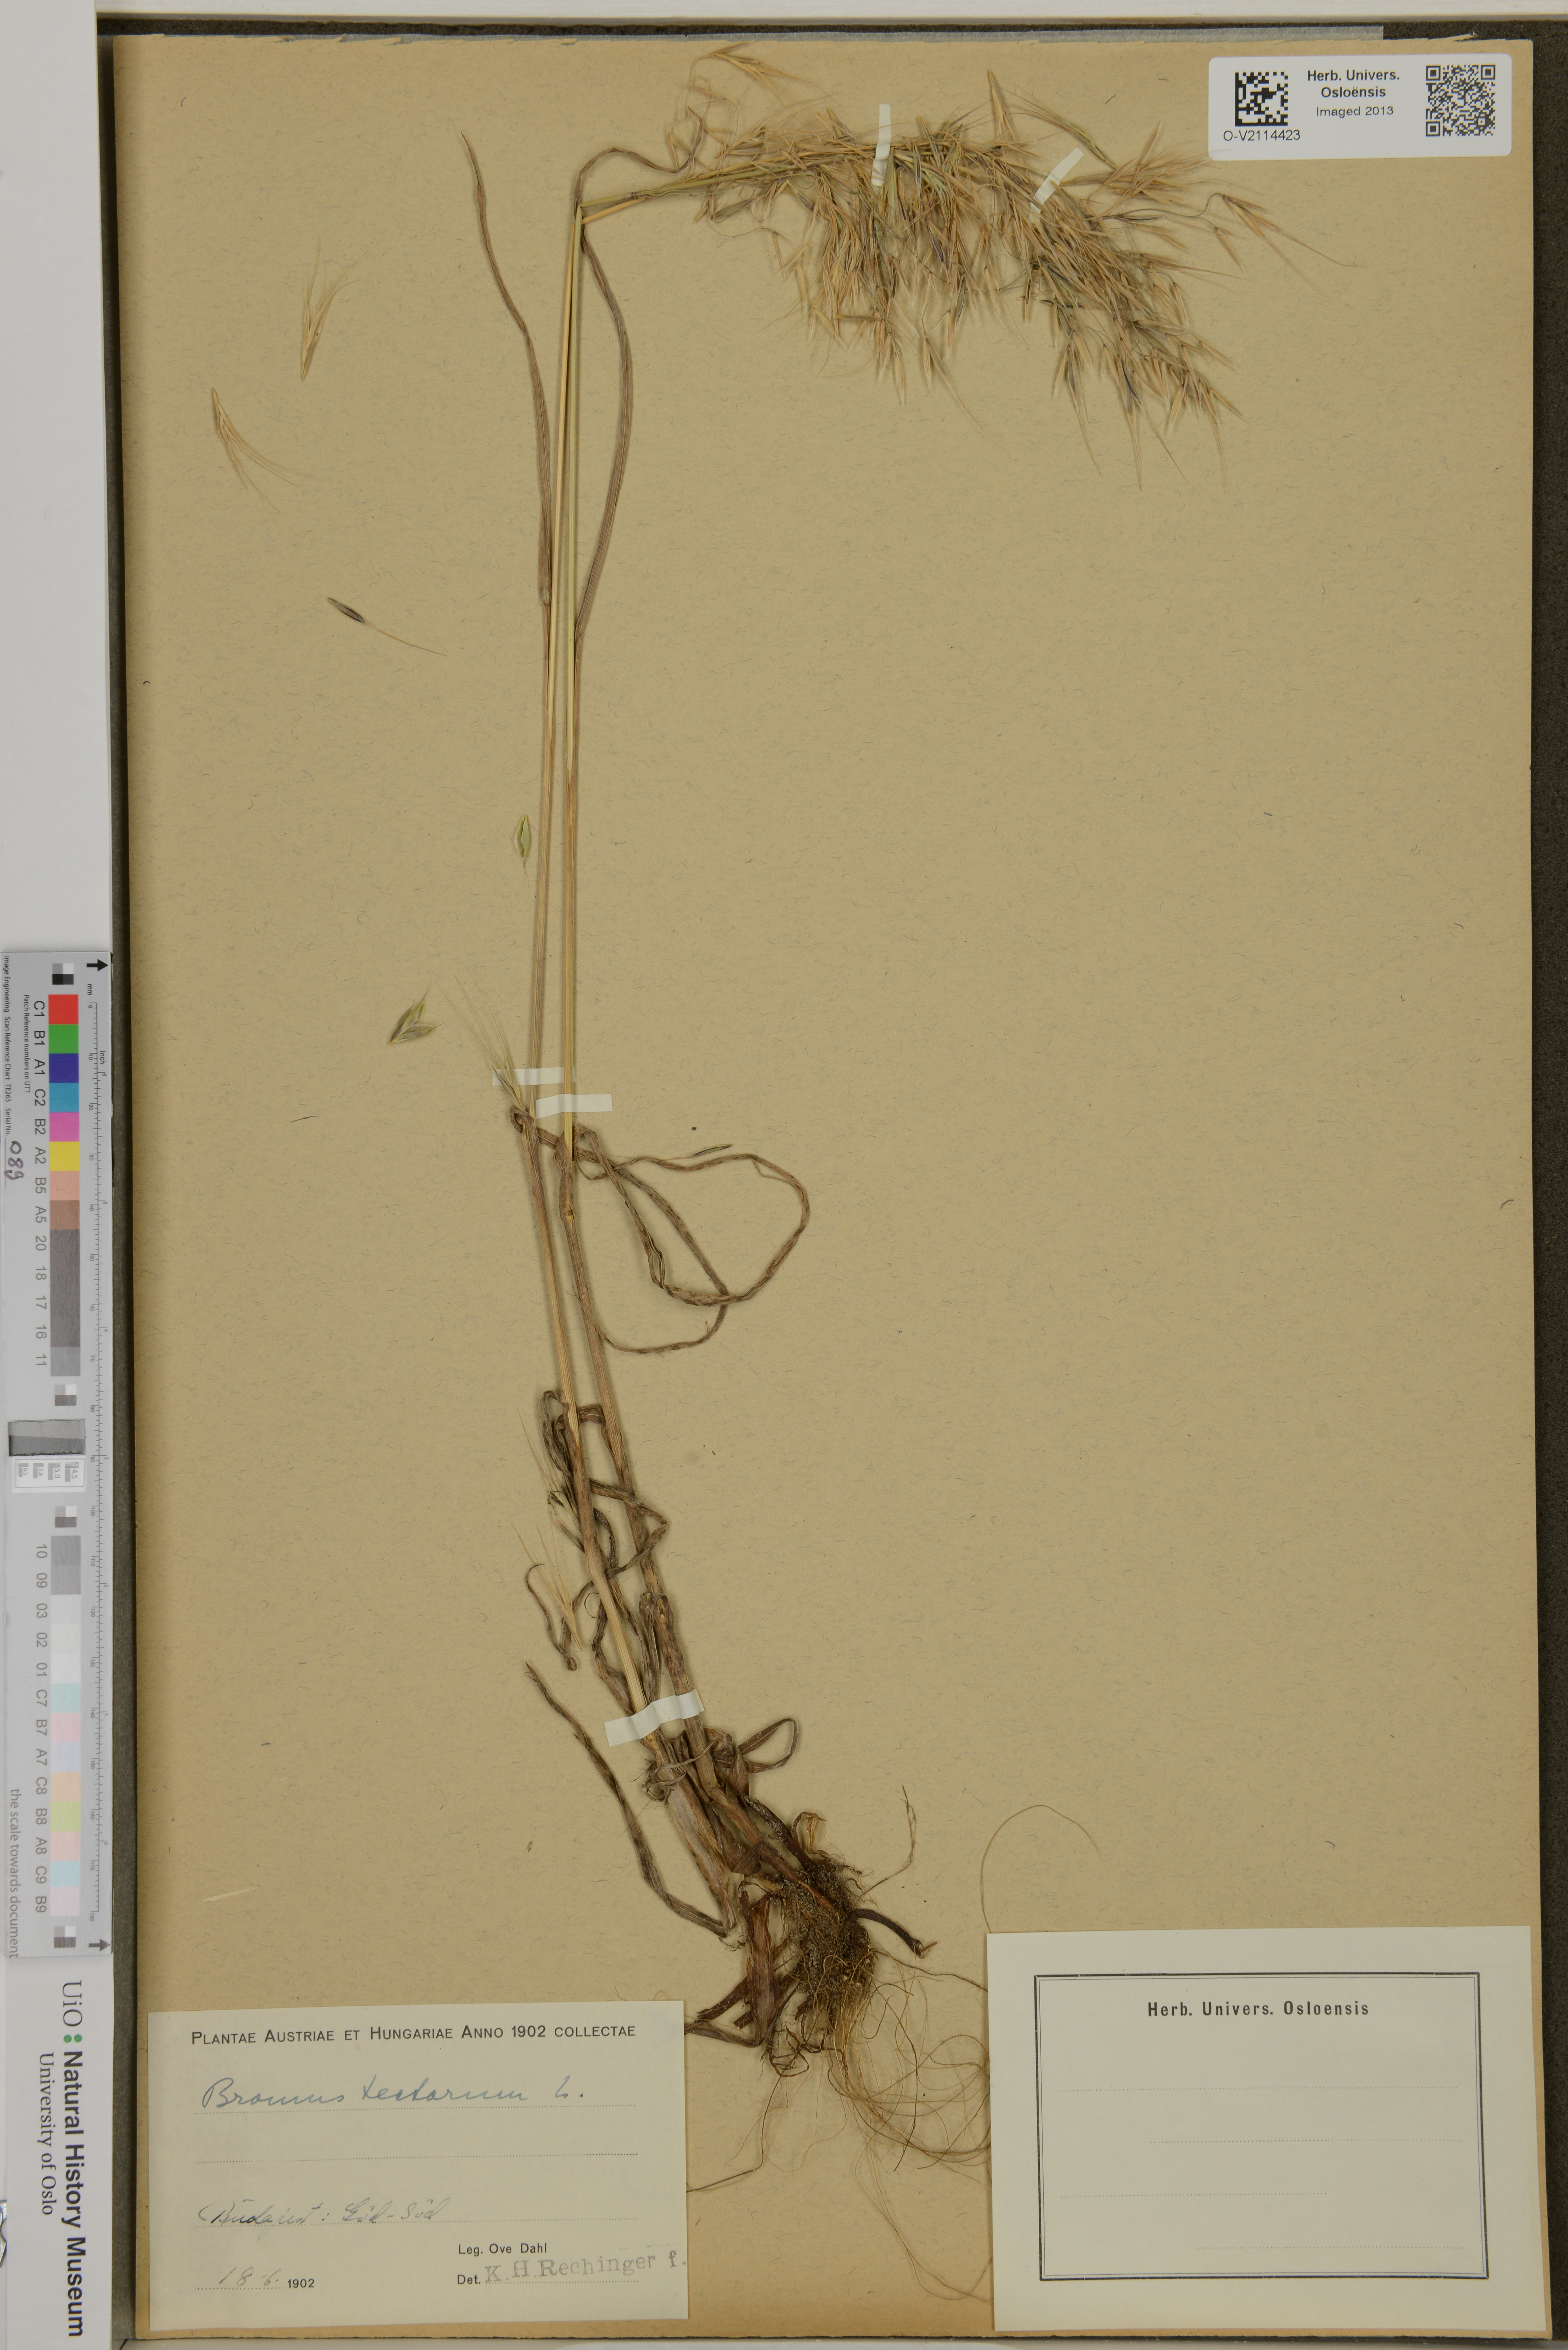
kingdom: Plantae
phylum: Tracheophyta
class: Liliopsida
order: Poales
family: Poaceae
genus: Bromus
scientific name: Bromus tectorum
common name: Cheatgrass
